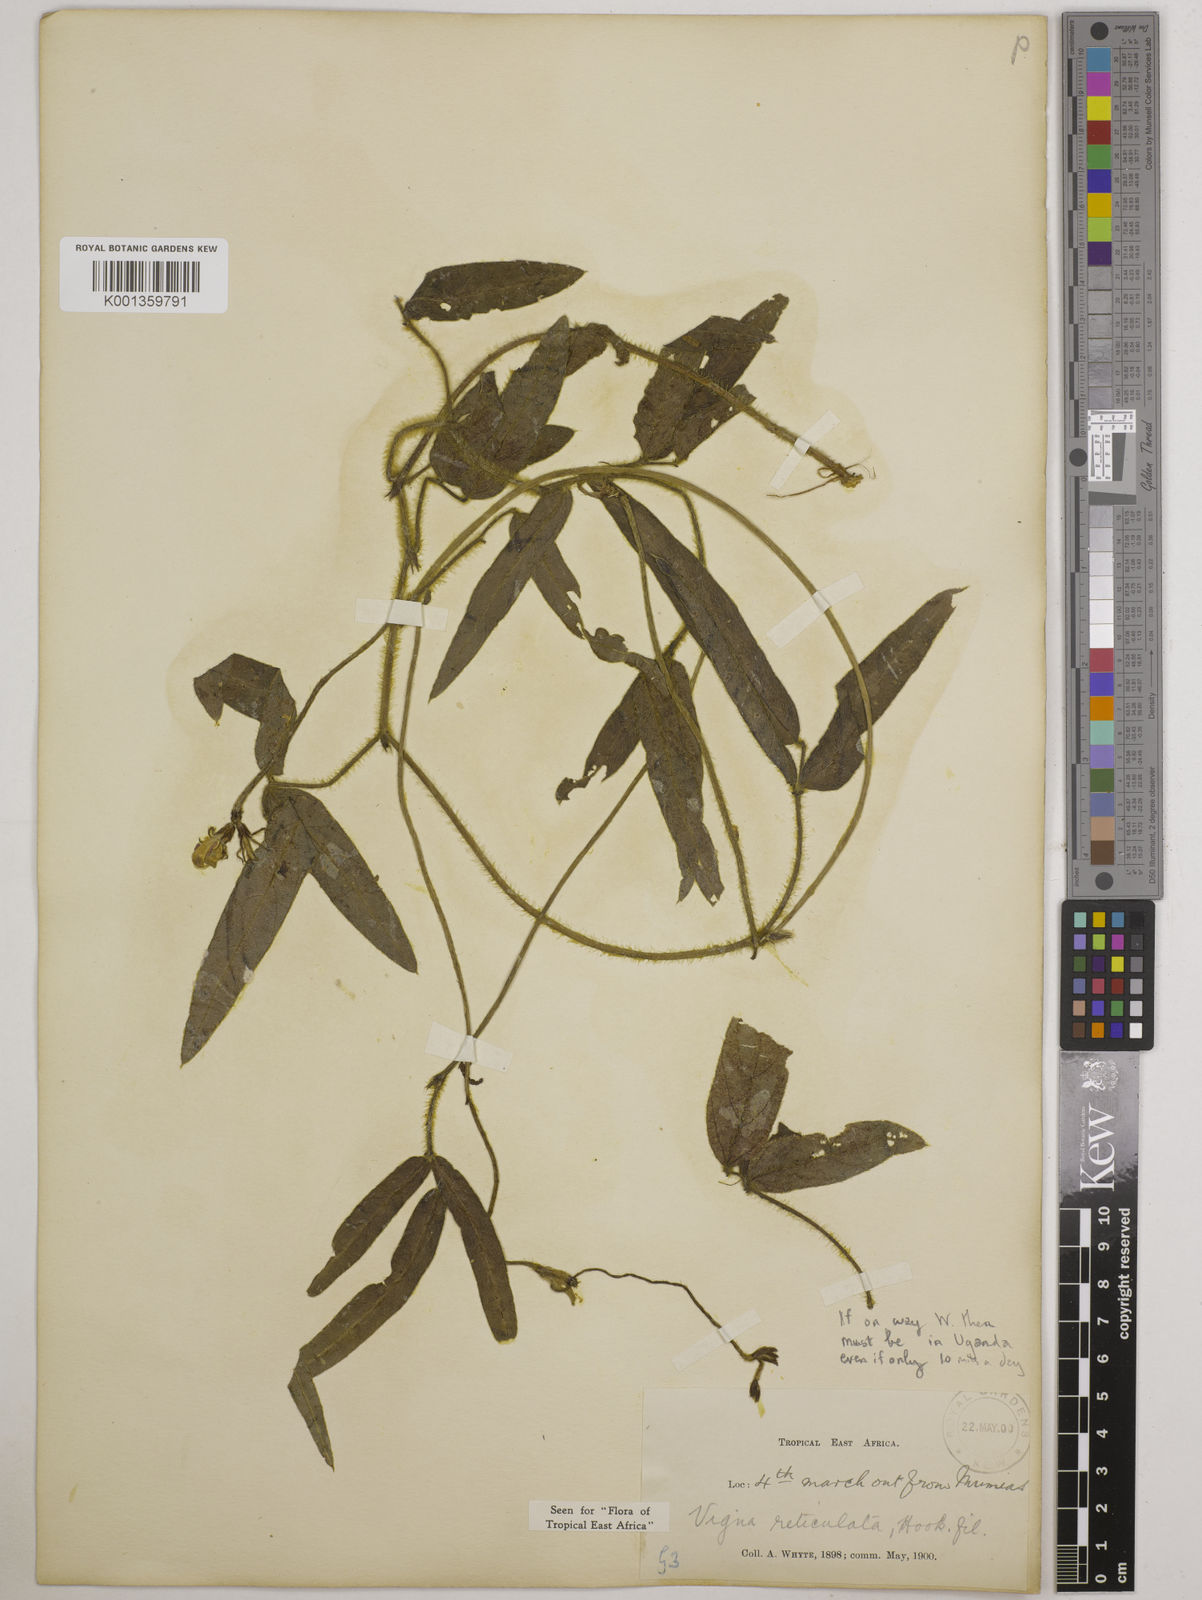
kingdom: Plantae
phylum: Tracheophyta
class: Magnoliopsida
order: Fabales
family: Fabaceae
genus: Vigna
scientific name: Vigna reticulata
